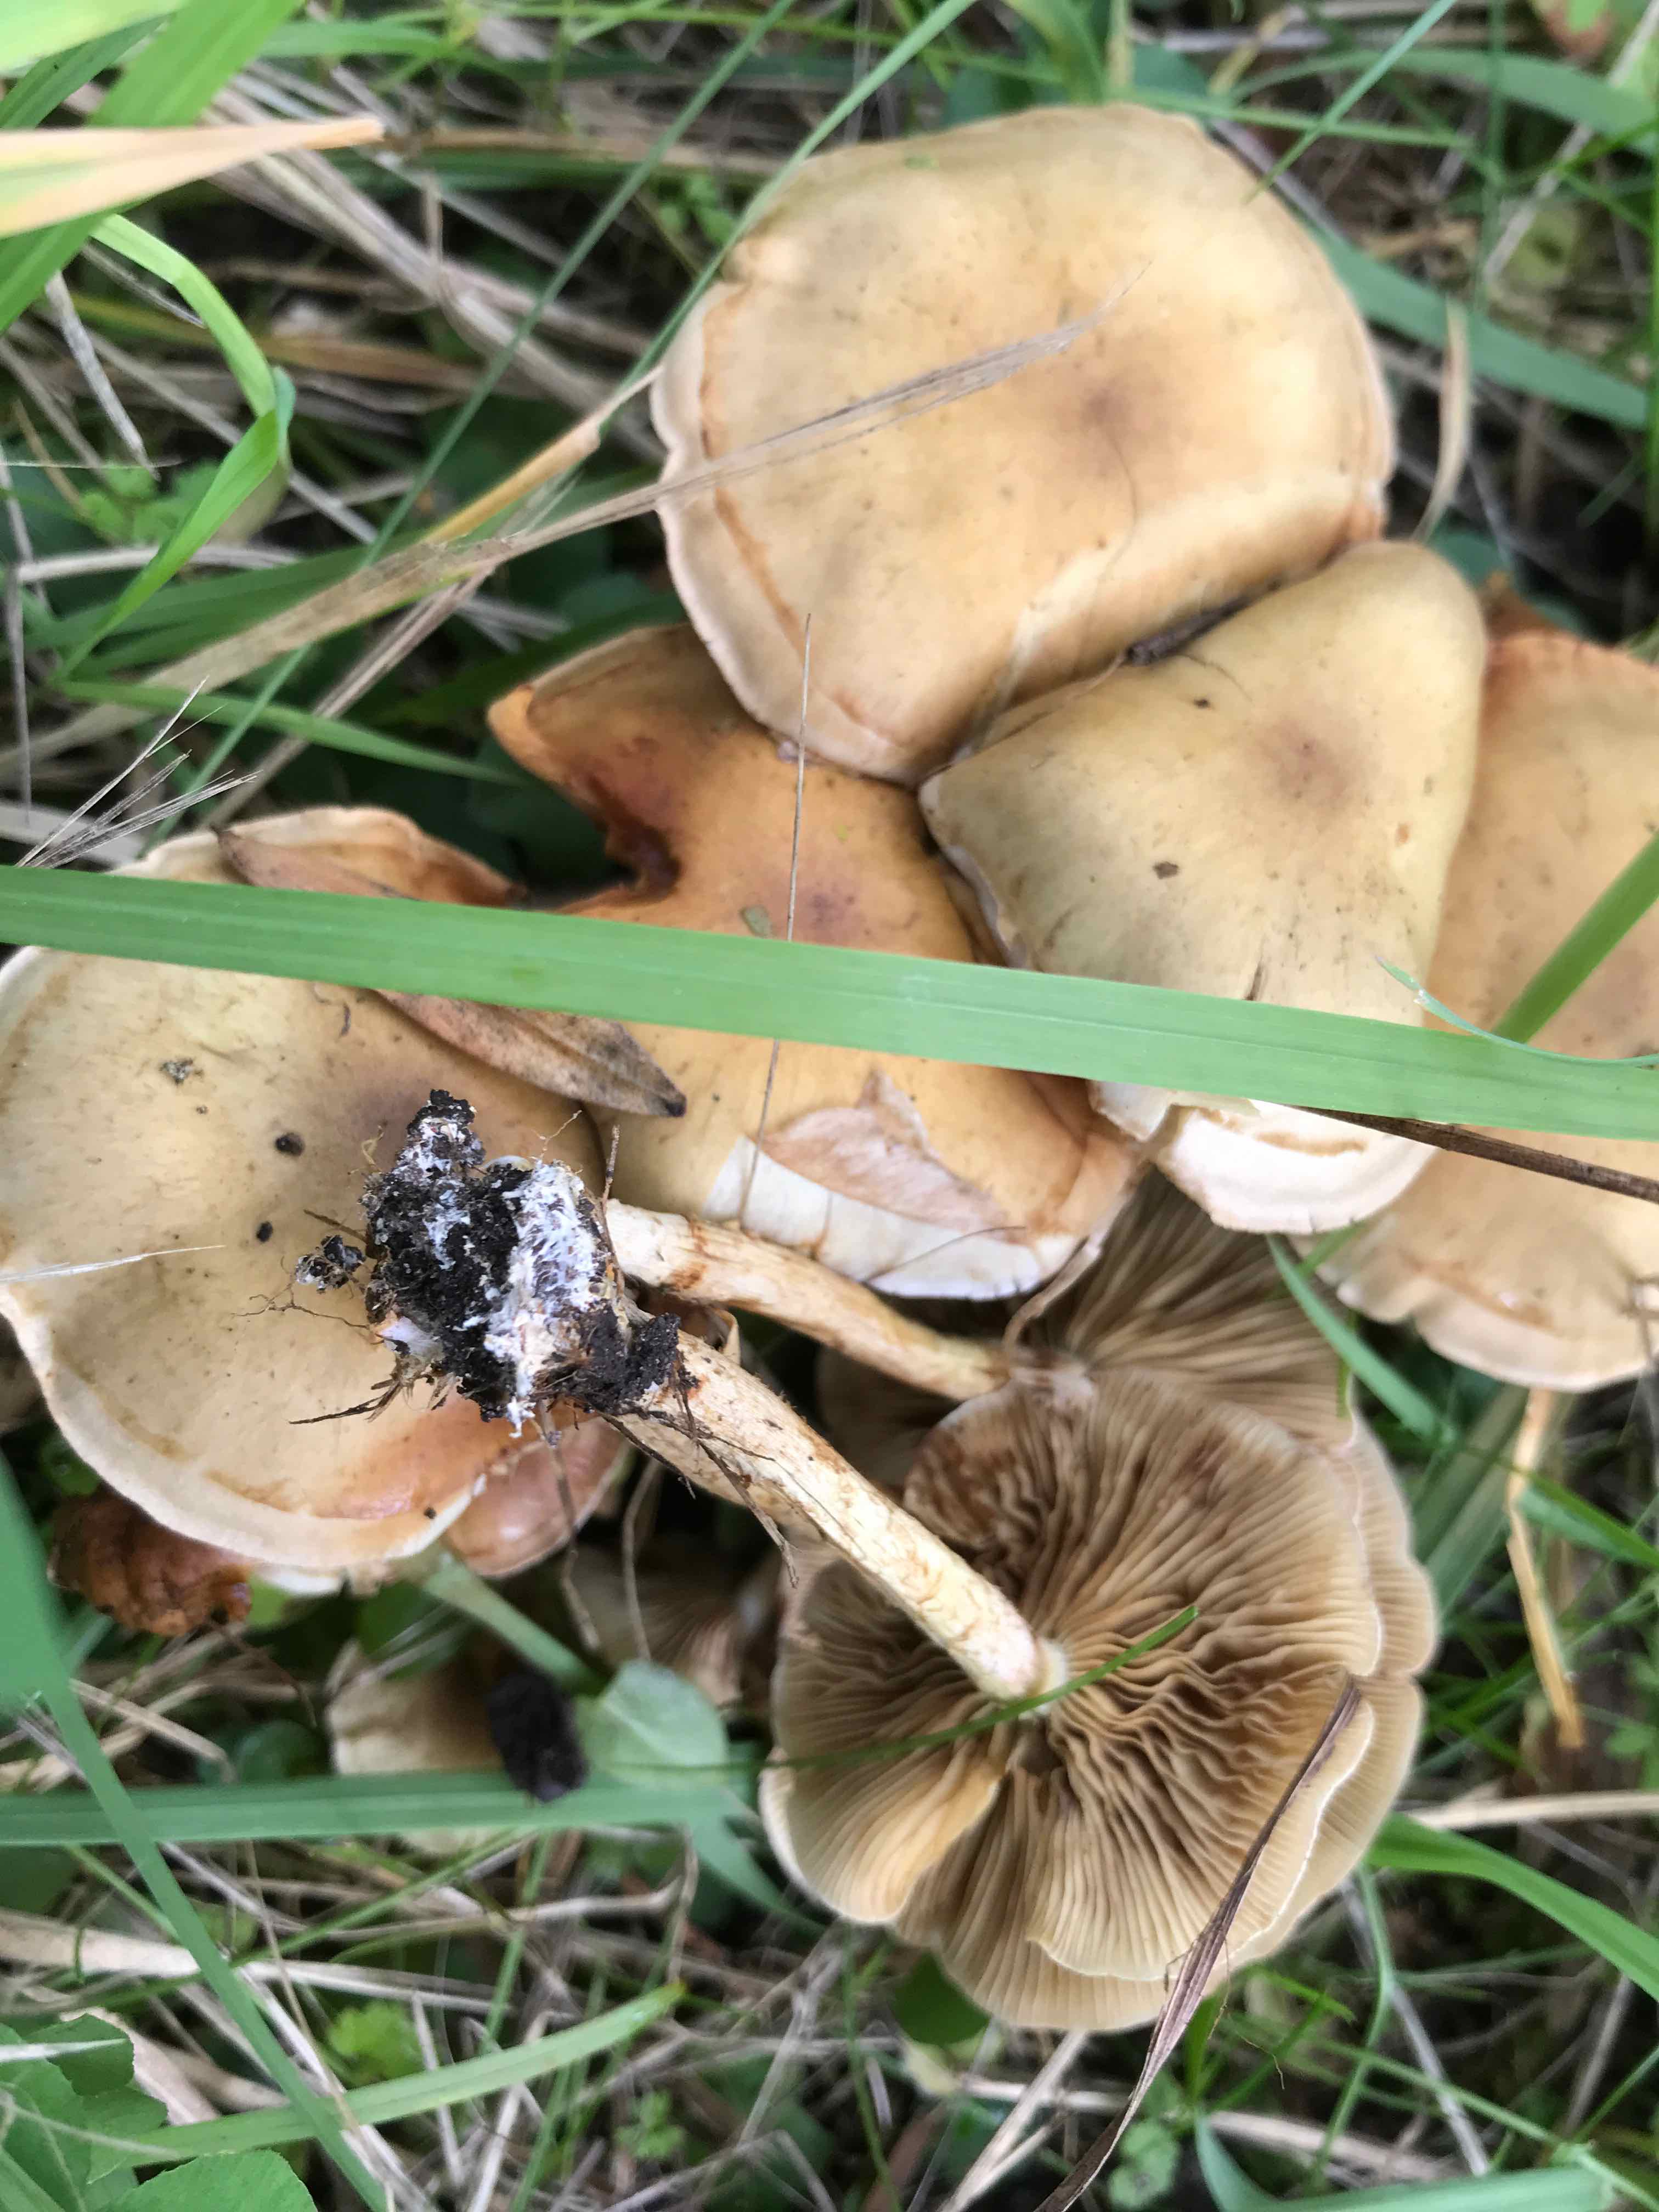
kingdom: Fungi
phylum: Basidiomycota
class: Agaricomycetes
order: Agaricales
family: Strophariaceae
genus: Pholiota
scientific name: Pholiota gummosa
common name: grøngul skælhat
